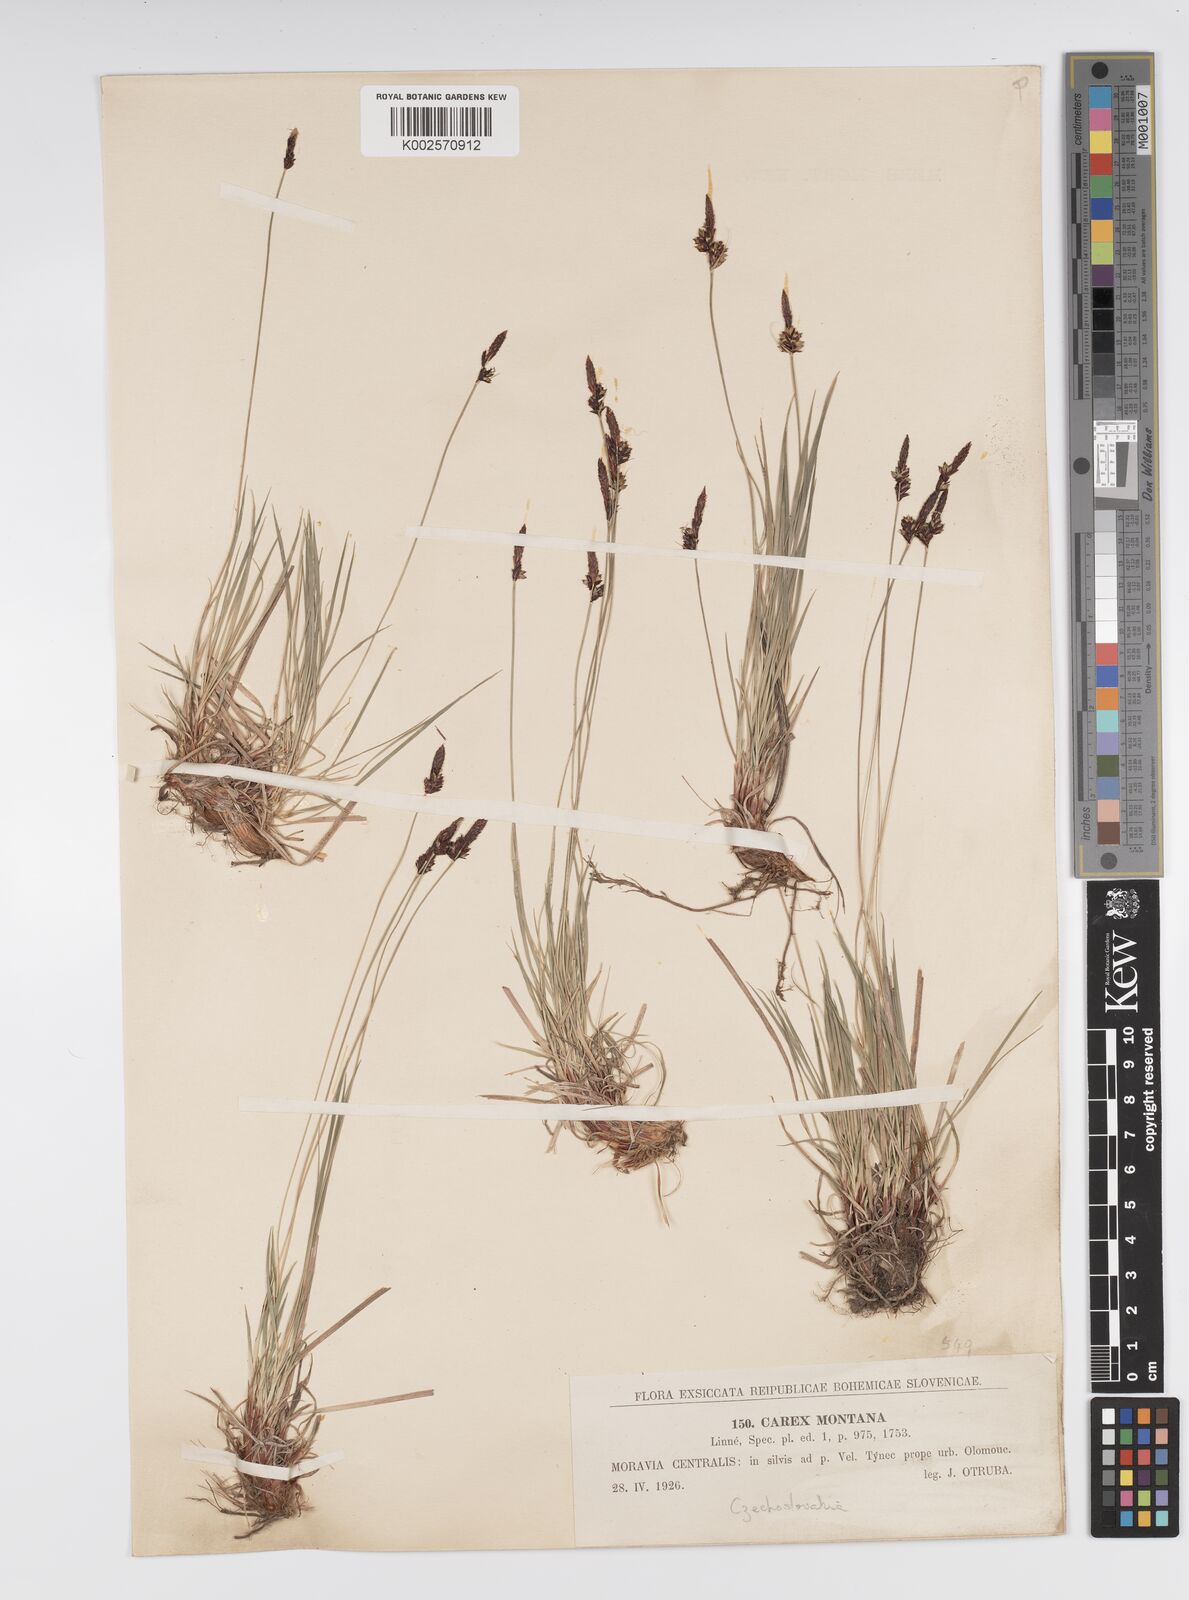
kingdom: Plantae
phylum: Tracheophyta
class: Liliopsida
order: Poales
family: Cyperaceae
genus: Carex
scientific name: Carex montana
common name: Soft-leaved sedge
